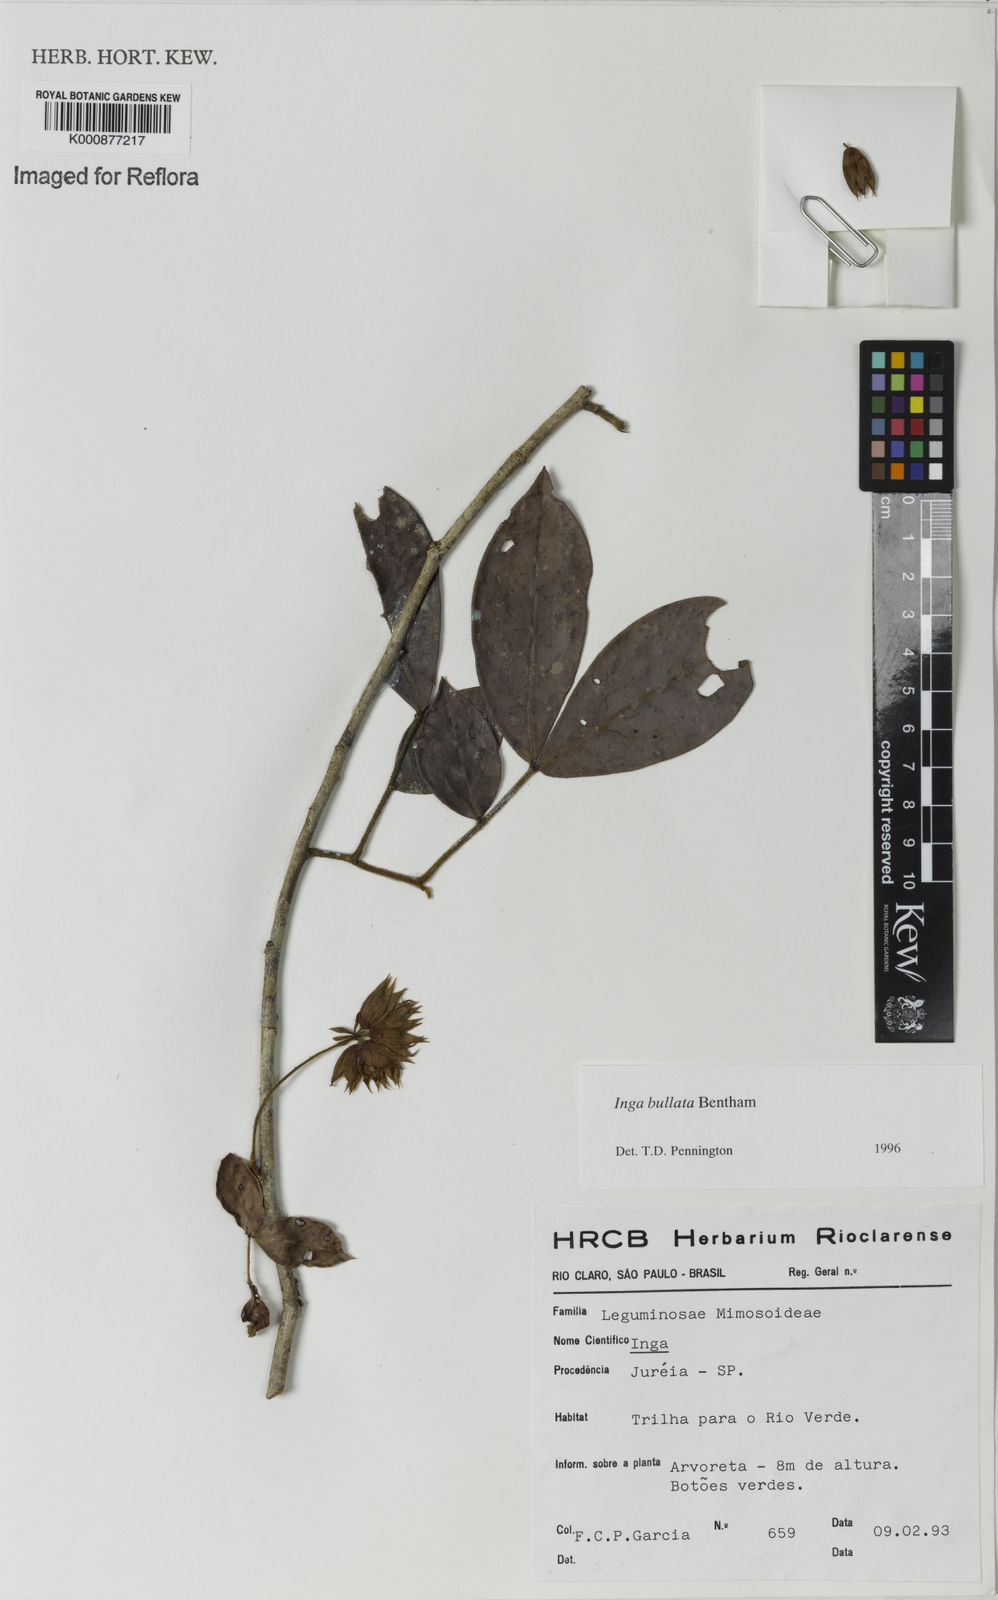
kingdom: Plantae
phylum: Tracheophyta
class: Magnoliopsida
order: Fabales
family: Fabaceae
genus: Inga
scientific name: Inga bullata
